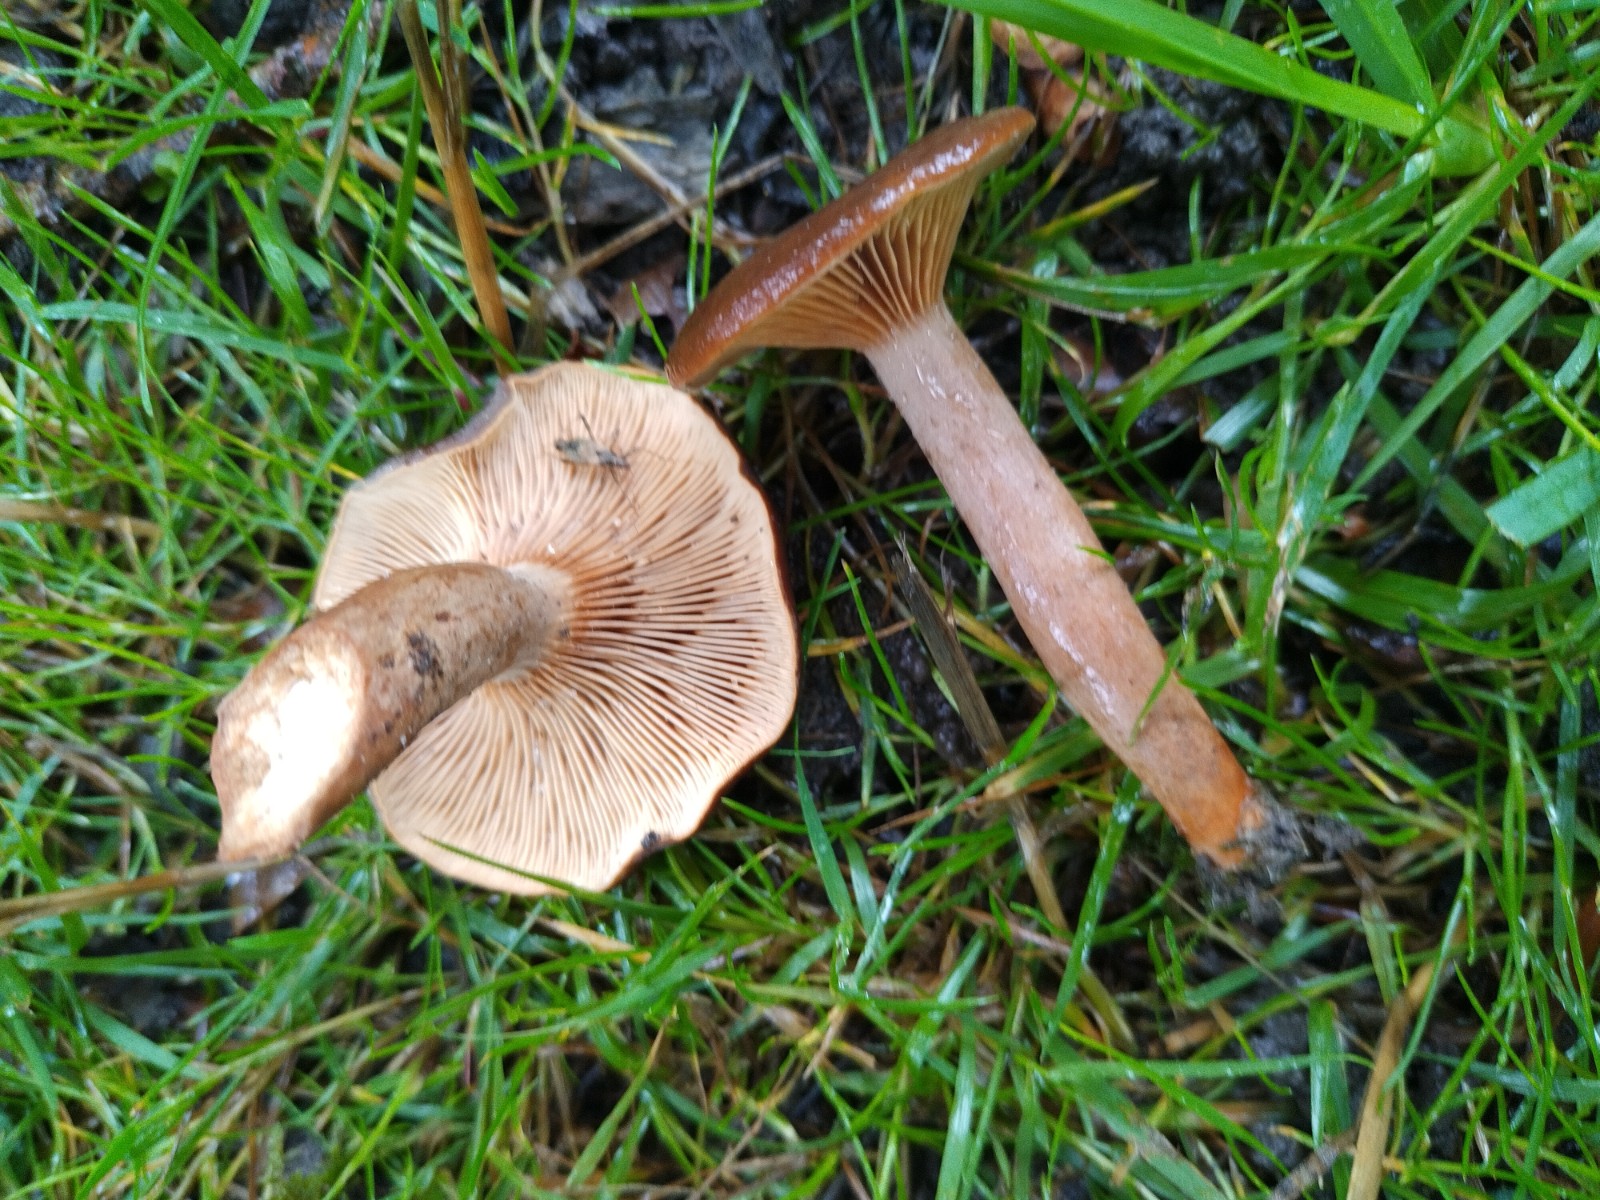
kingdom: Fungi
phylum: Basidiomycota
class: Agaricomycetes
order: Russulales
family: Russulaceae
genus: Lactarius
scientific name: Lactarius serifluus
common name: tæge-mælkehat
